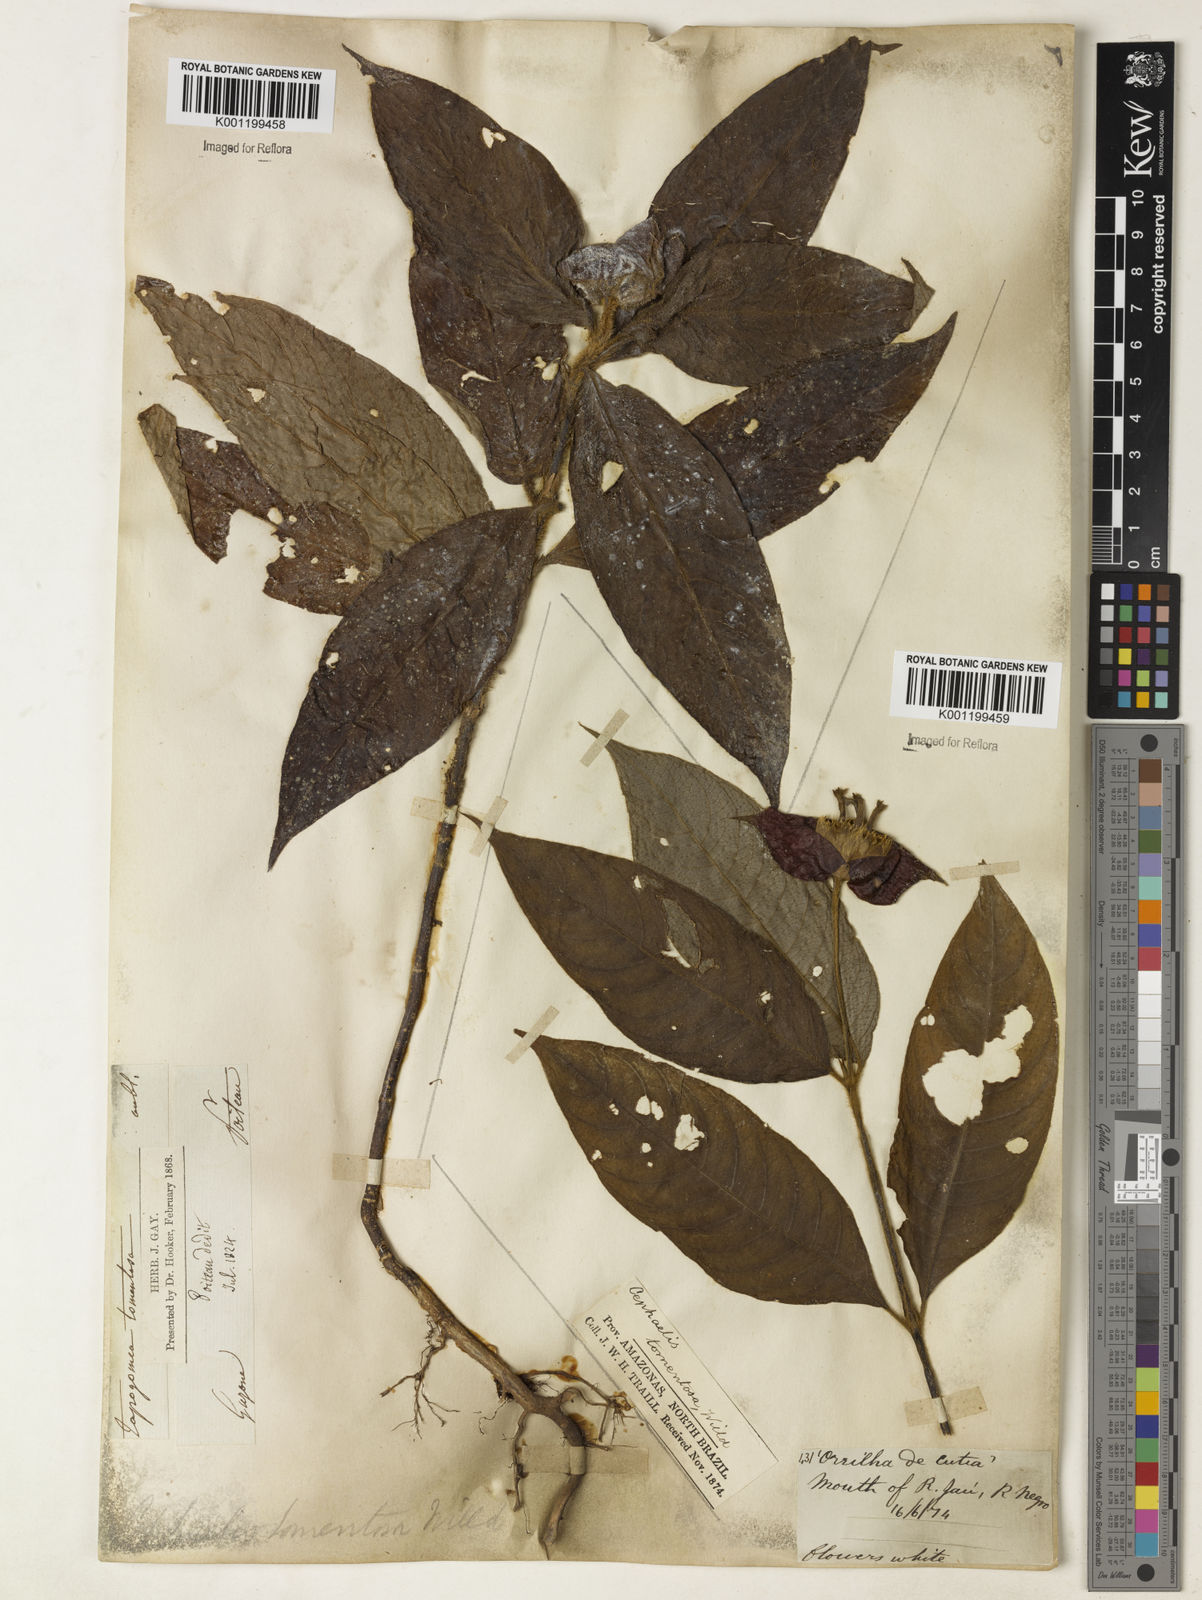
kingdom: Plantae
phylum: Tracheophyta
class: Magnoliopsida
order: Gentianales
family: Rubiaceae
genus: Psychotria
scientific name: Psychotria
